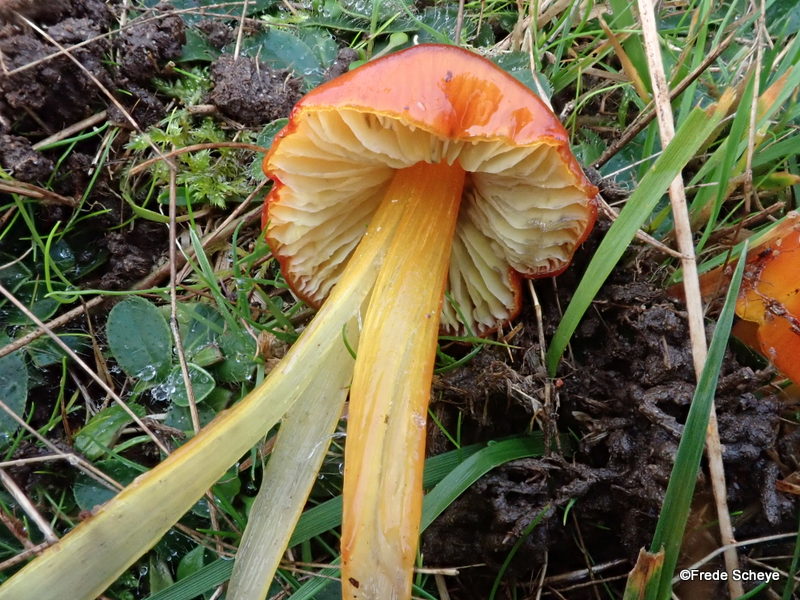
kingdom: Fungi
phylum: Basidiomycota
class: Agaricomycetes
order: Agaricales
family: Hygrophoraceae
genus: Hygrocybe
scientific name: Hygrocybe conica
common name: kegle-vokshat
